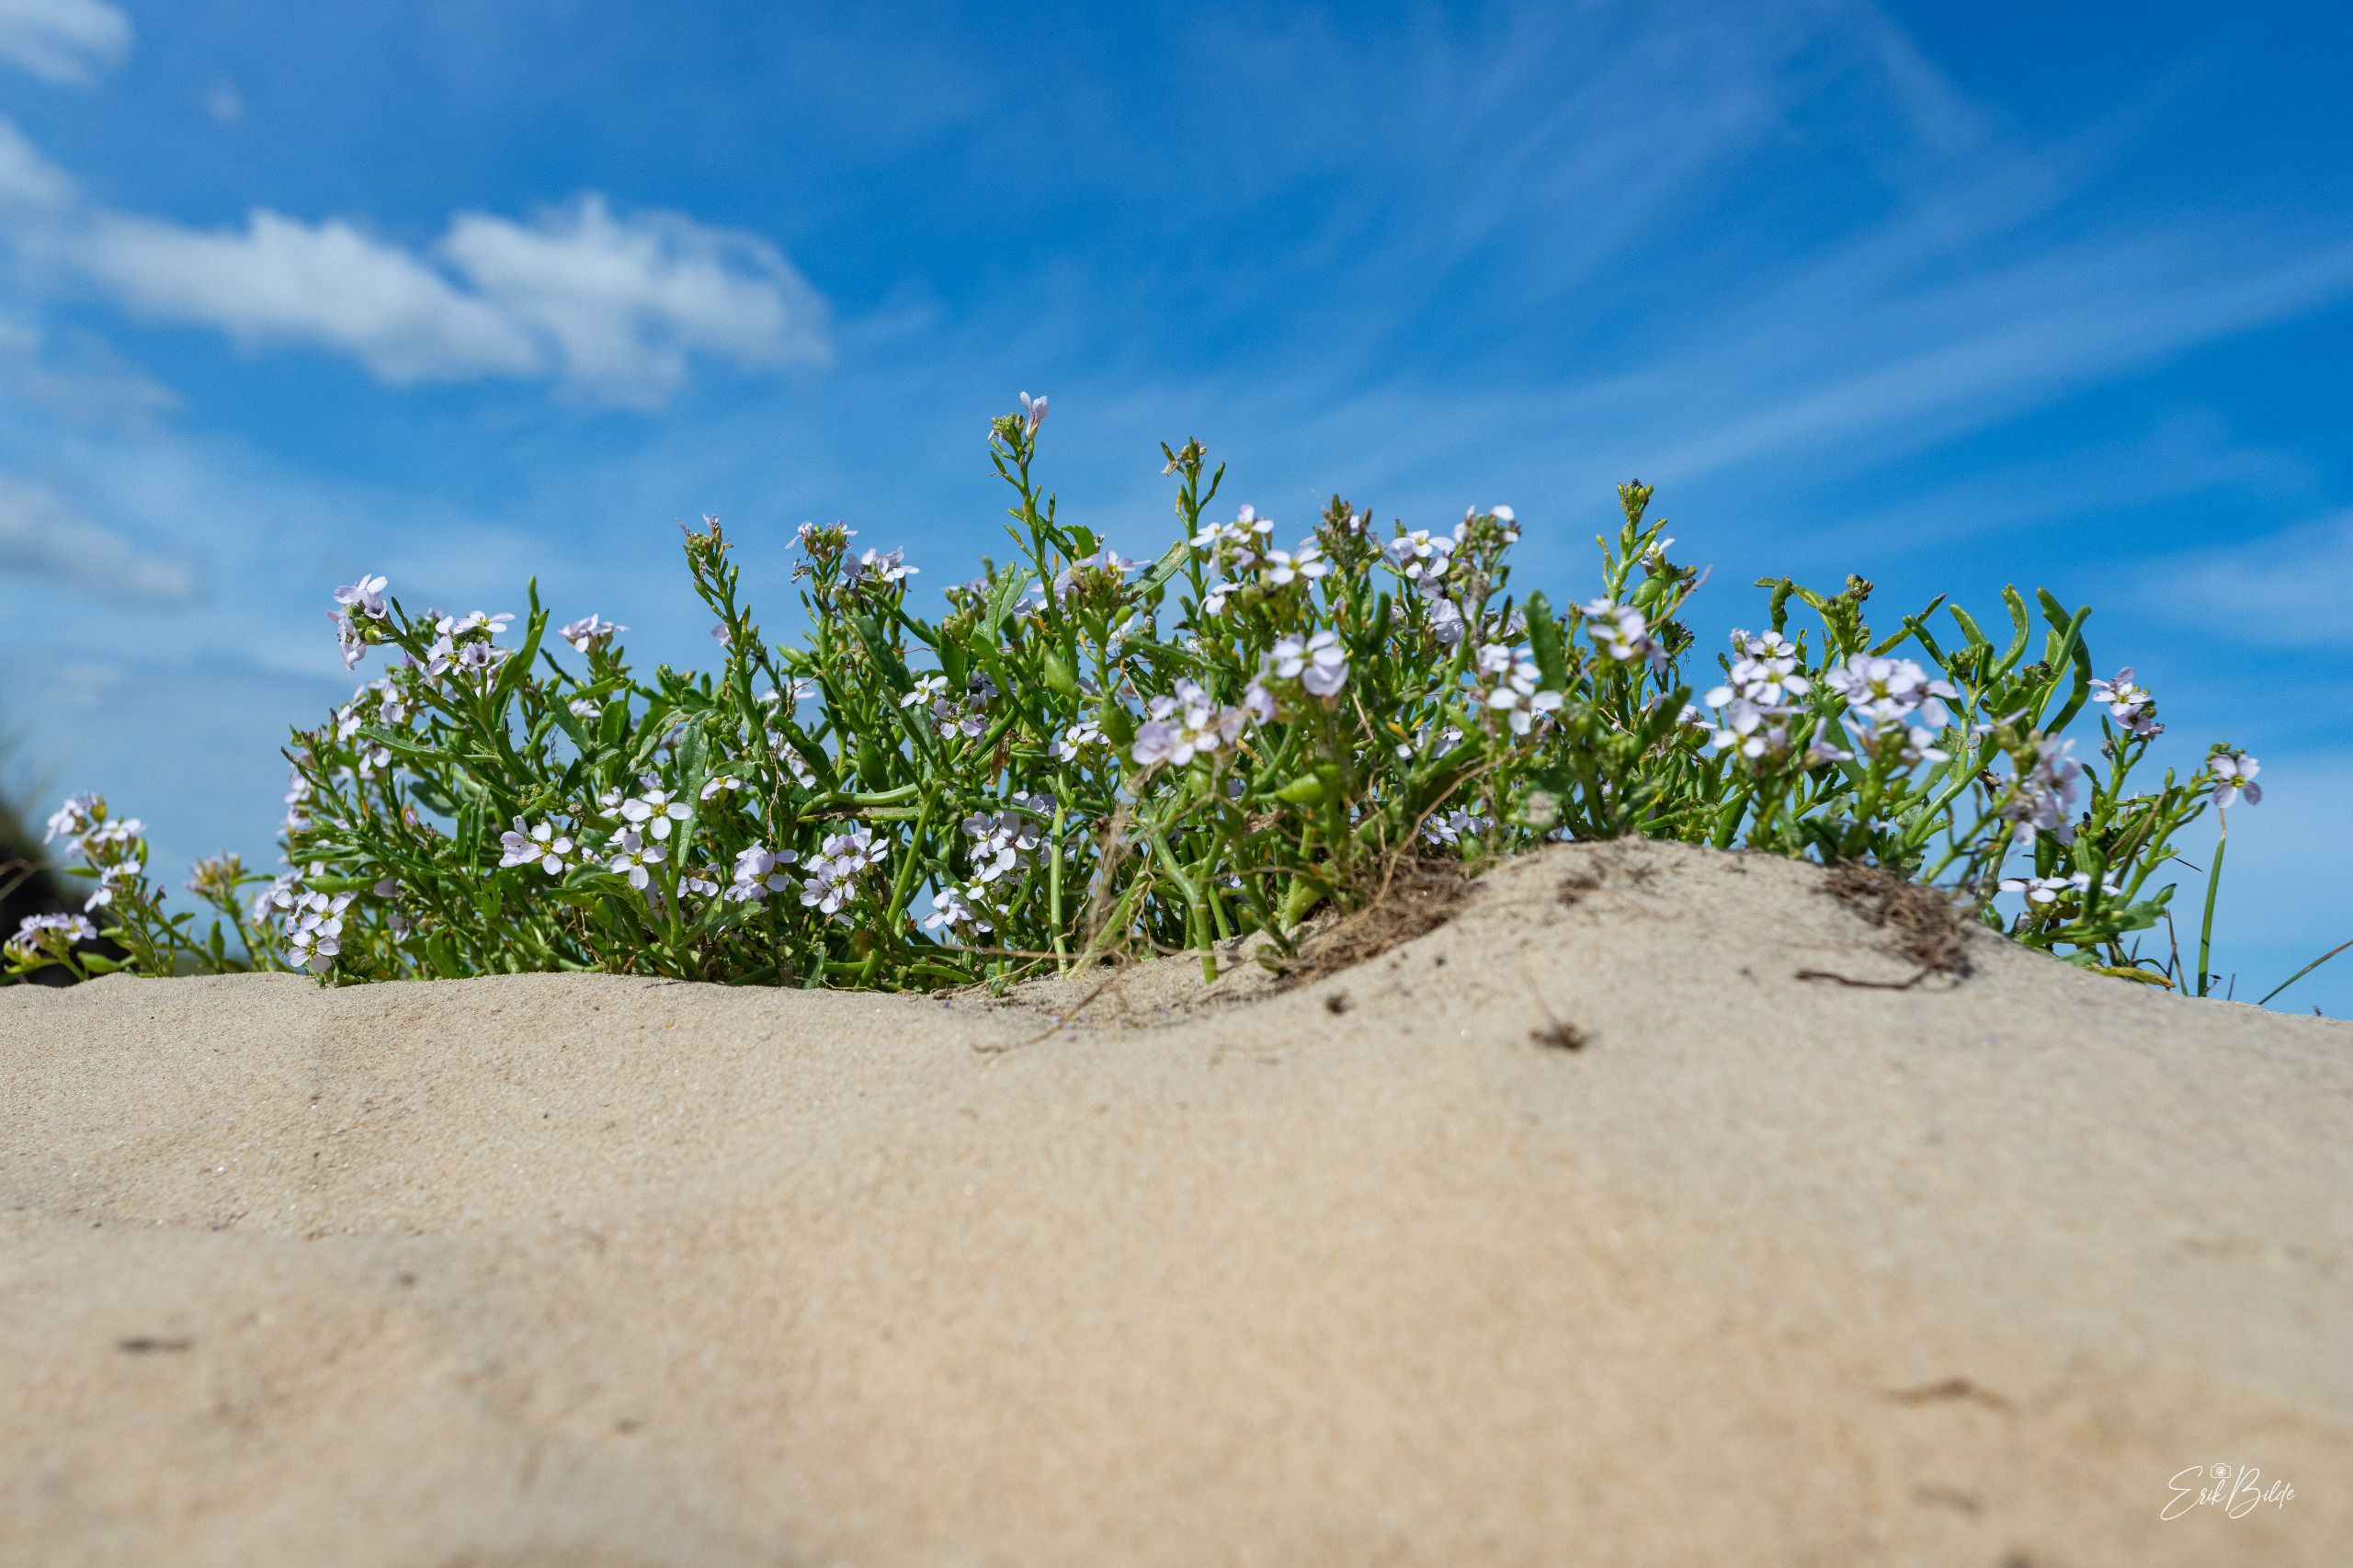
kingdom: Plantae
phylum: Tracheophyta
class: Magnoliopsida
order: Brassicales
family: Brassicaceae
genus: Cakile
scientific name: Cakile maritima
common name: Strandsennep
